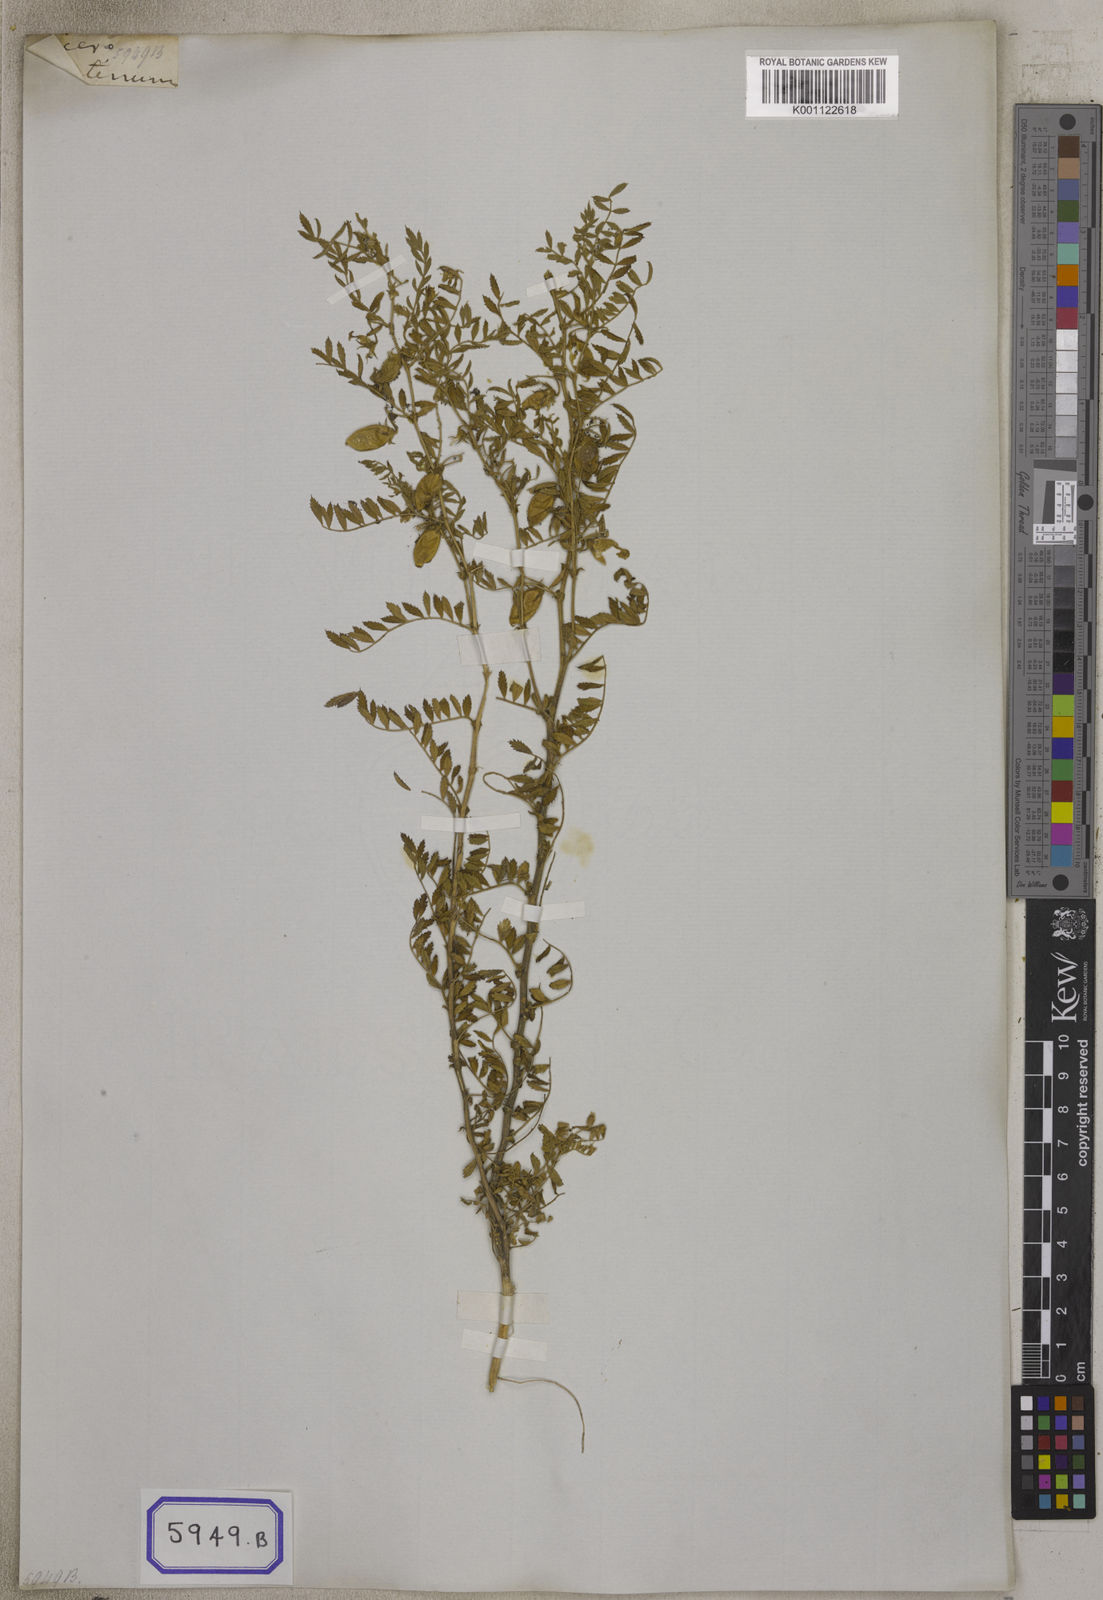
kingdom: Plantae
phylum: Tracheophyta
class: Magnoliopsida
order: Fabales
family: Fabaceae
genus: Cicer
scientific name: Cicer arietinum
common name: Chick pea
